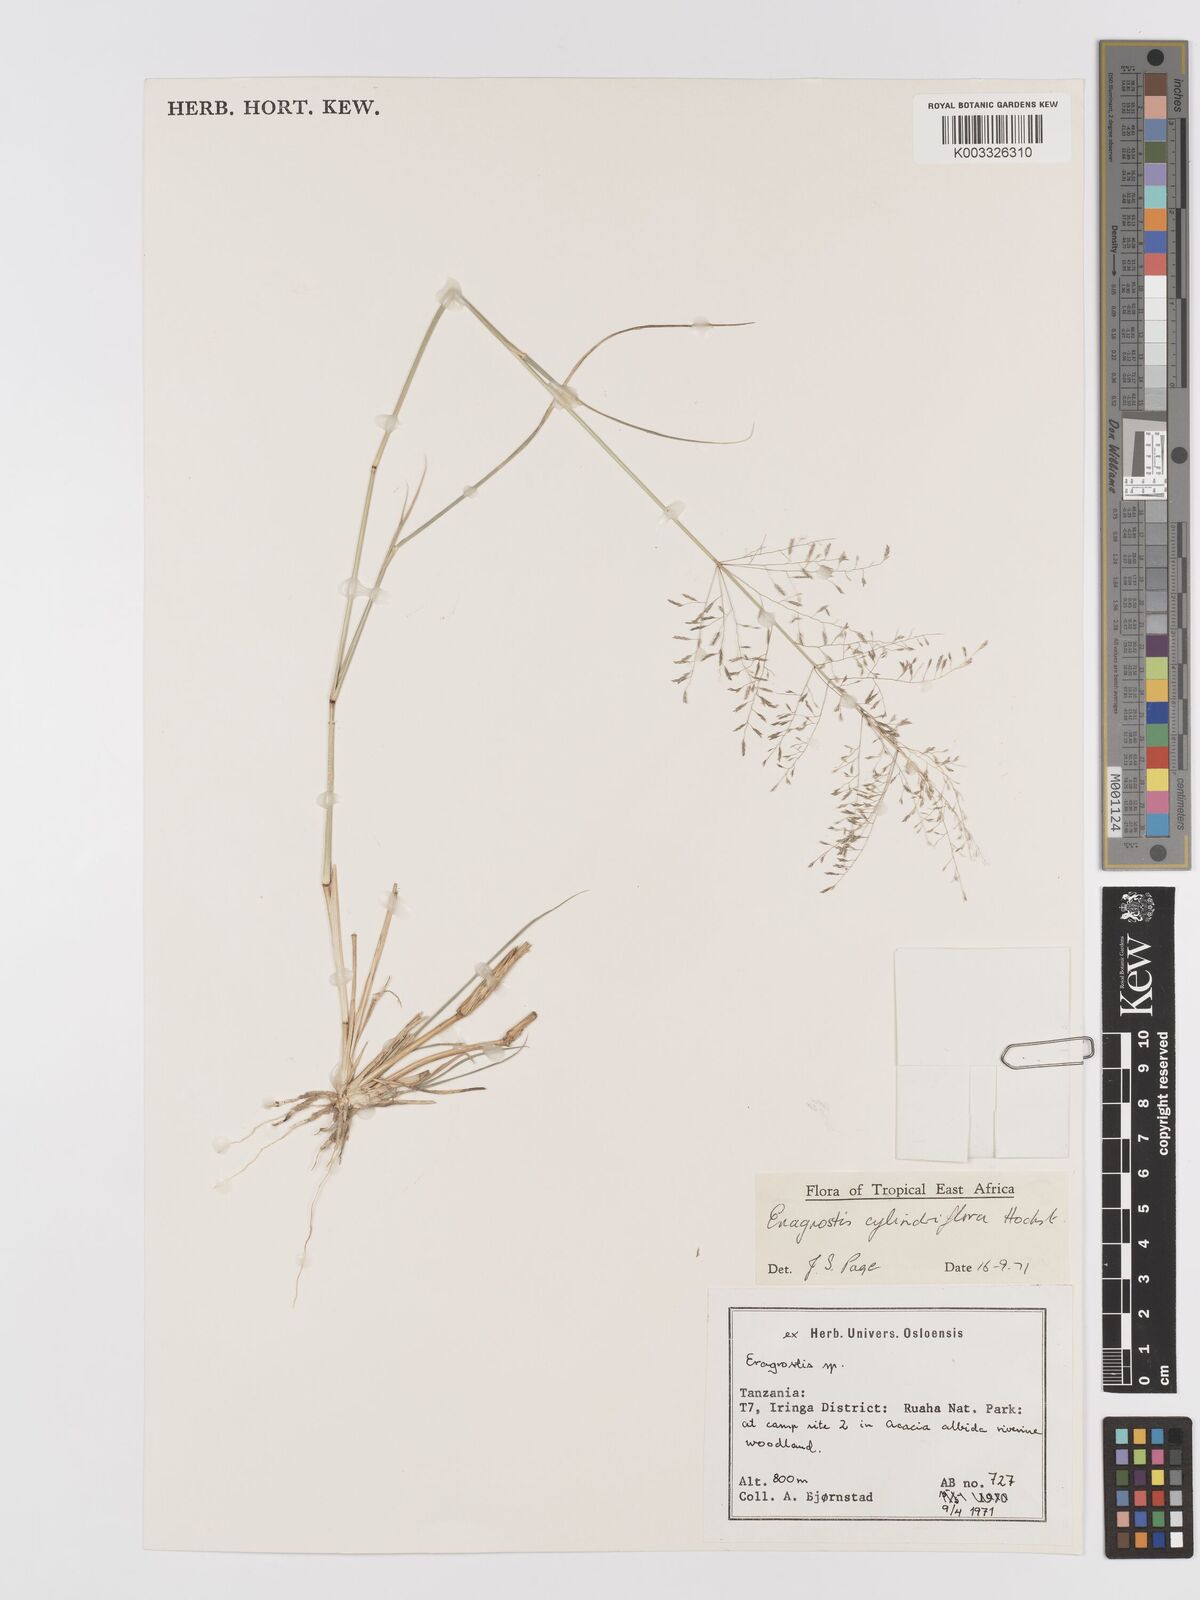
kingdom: Plantae
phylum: Tracheophyta
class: Liliopsida
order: Poales
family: Poaceae
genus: Eragrostis
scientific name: Eragrostis cylindriflora
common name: Cylinderflower lovegrass
